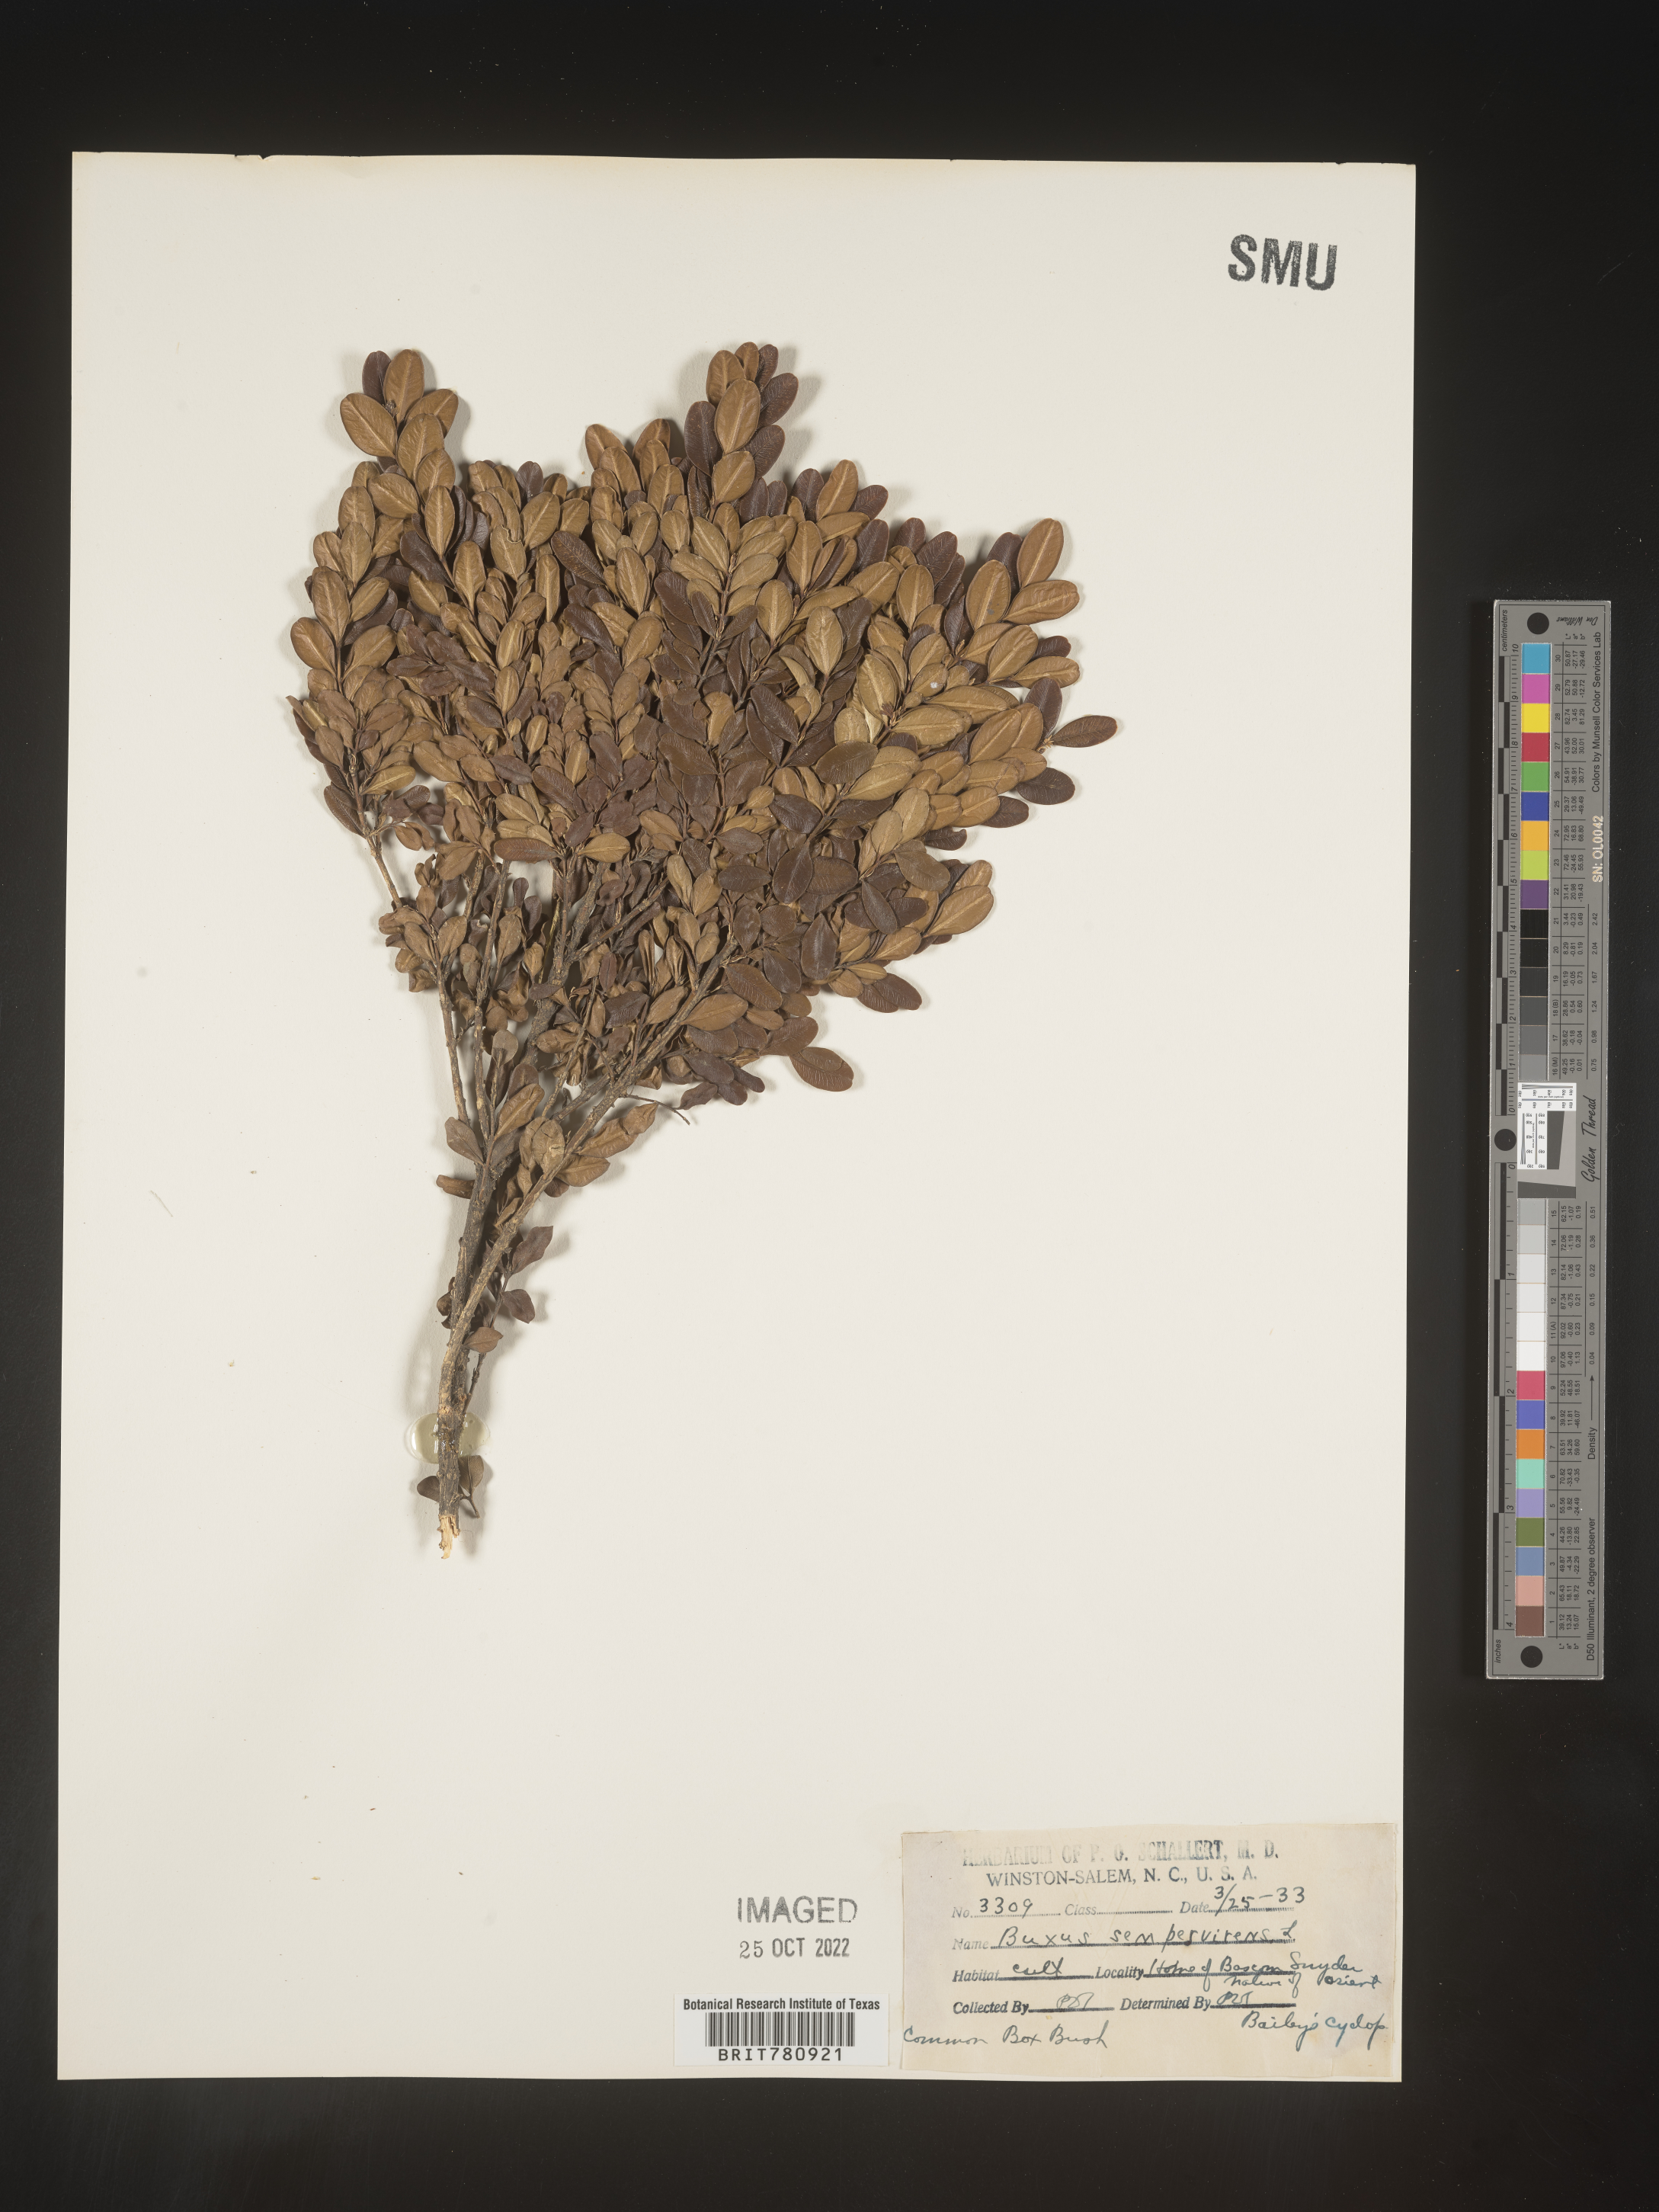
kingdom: Plantae
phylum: Tracheophyta
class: Magnoliopsida
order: Buxales
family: Buxaceae
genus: Buxus
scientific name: Buxus
